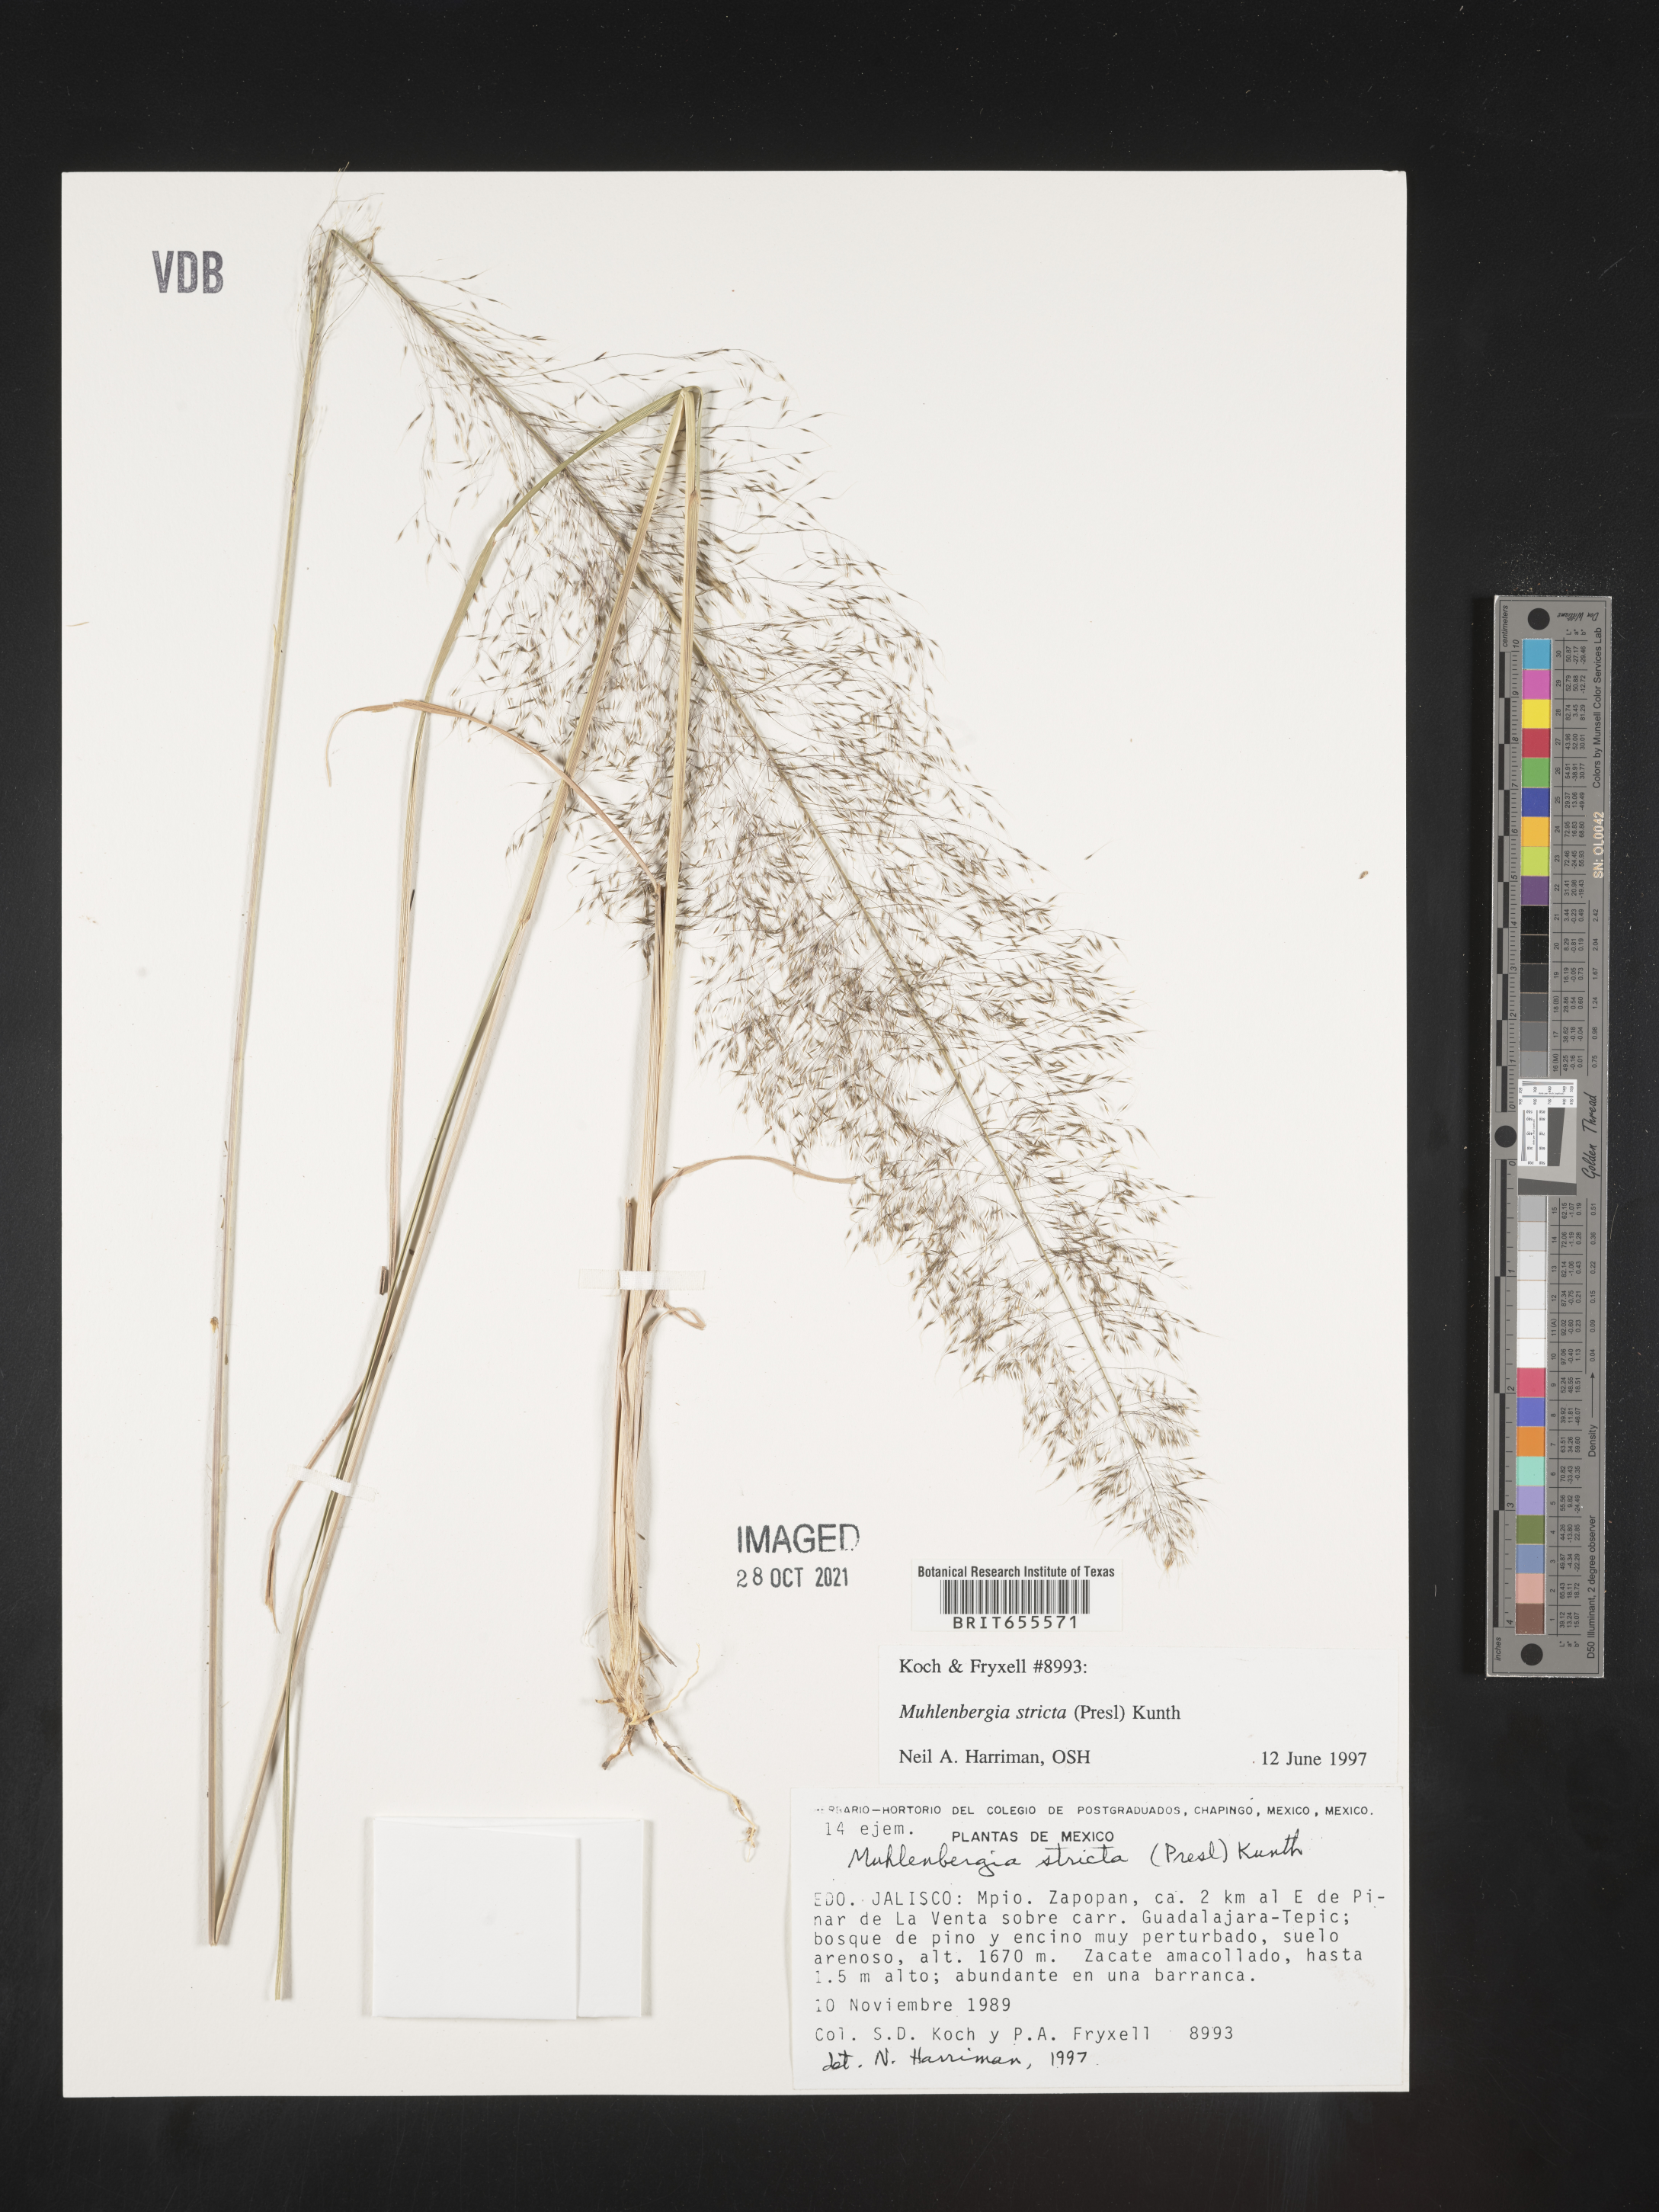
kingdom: Plantae
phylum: Tracheophyta
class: Liliopsida
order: Poales
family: Poaceae
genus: Muhlenbergia
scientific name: Muhlenbergia
